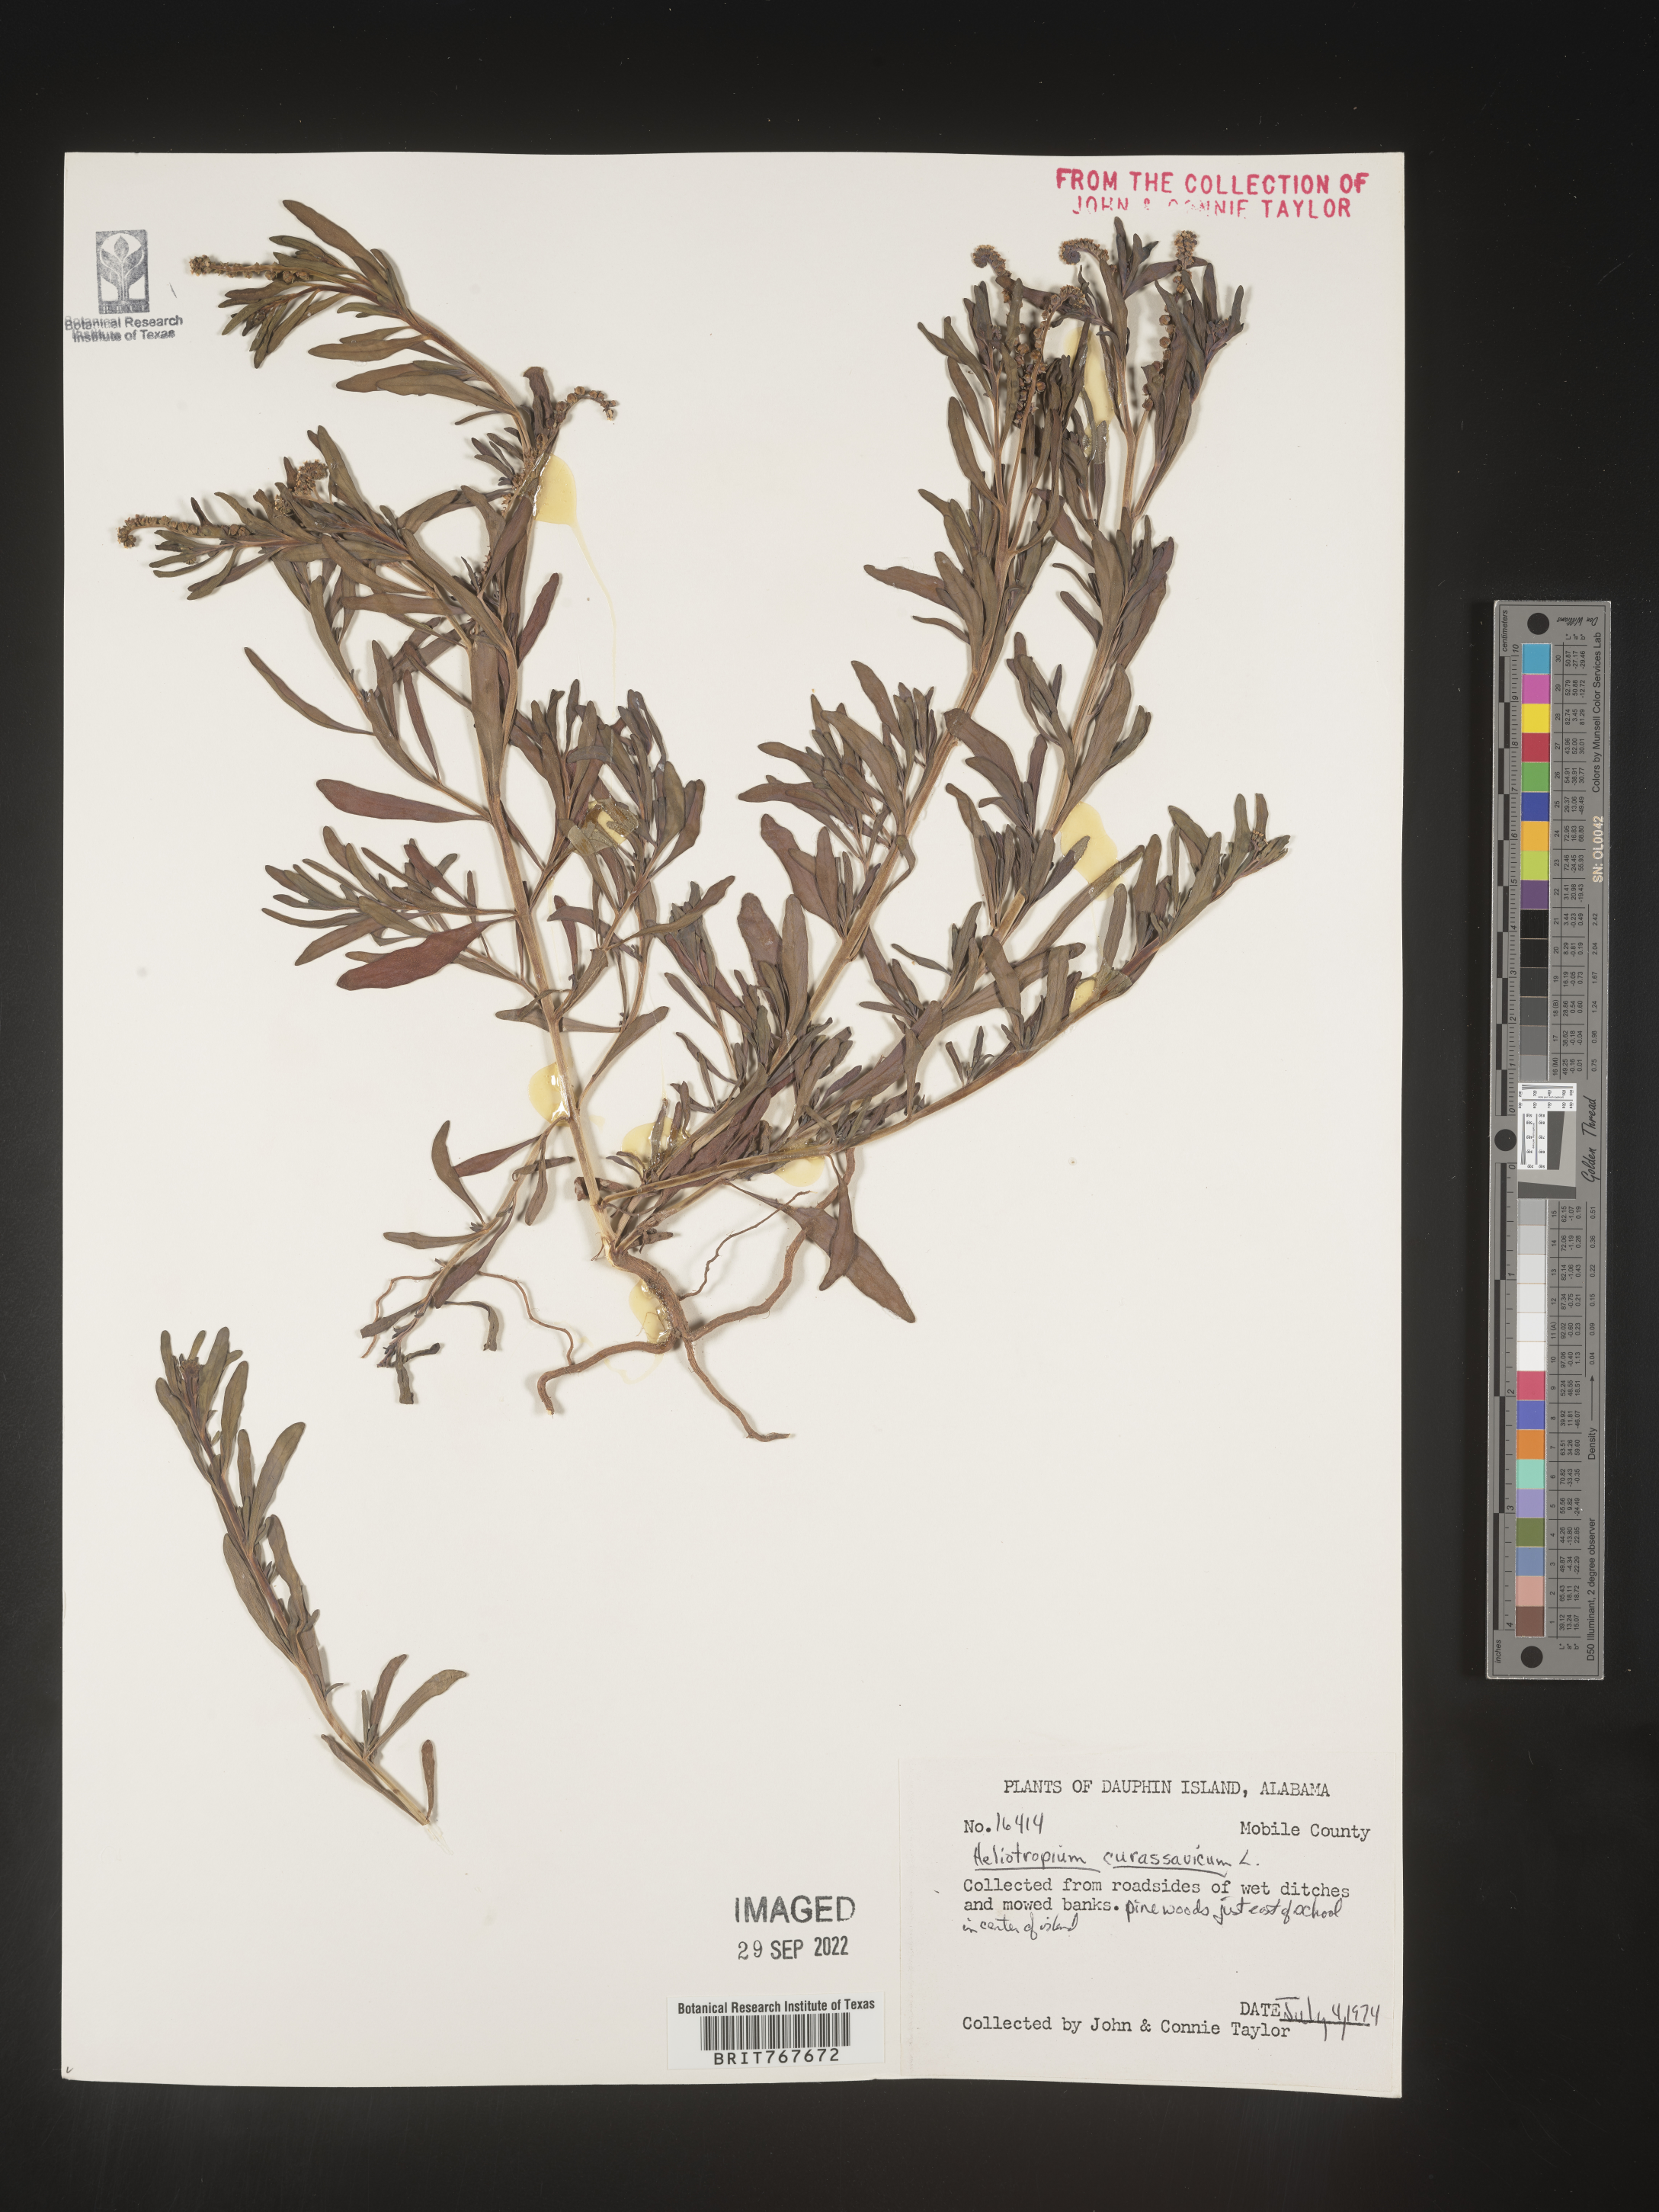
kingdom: Plantae
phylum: Tracheophyta
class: Magnoliopsida
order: Boraginales
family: Heliotropiaceae
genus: Heliotropium
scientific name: Heliotropium curassavicum
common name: Seaside heliotrope
